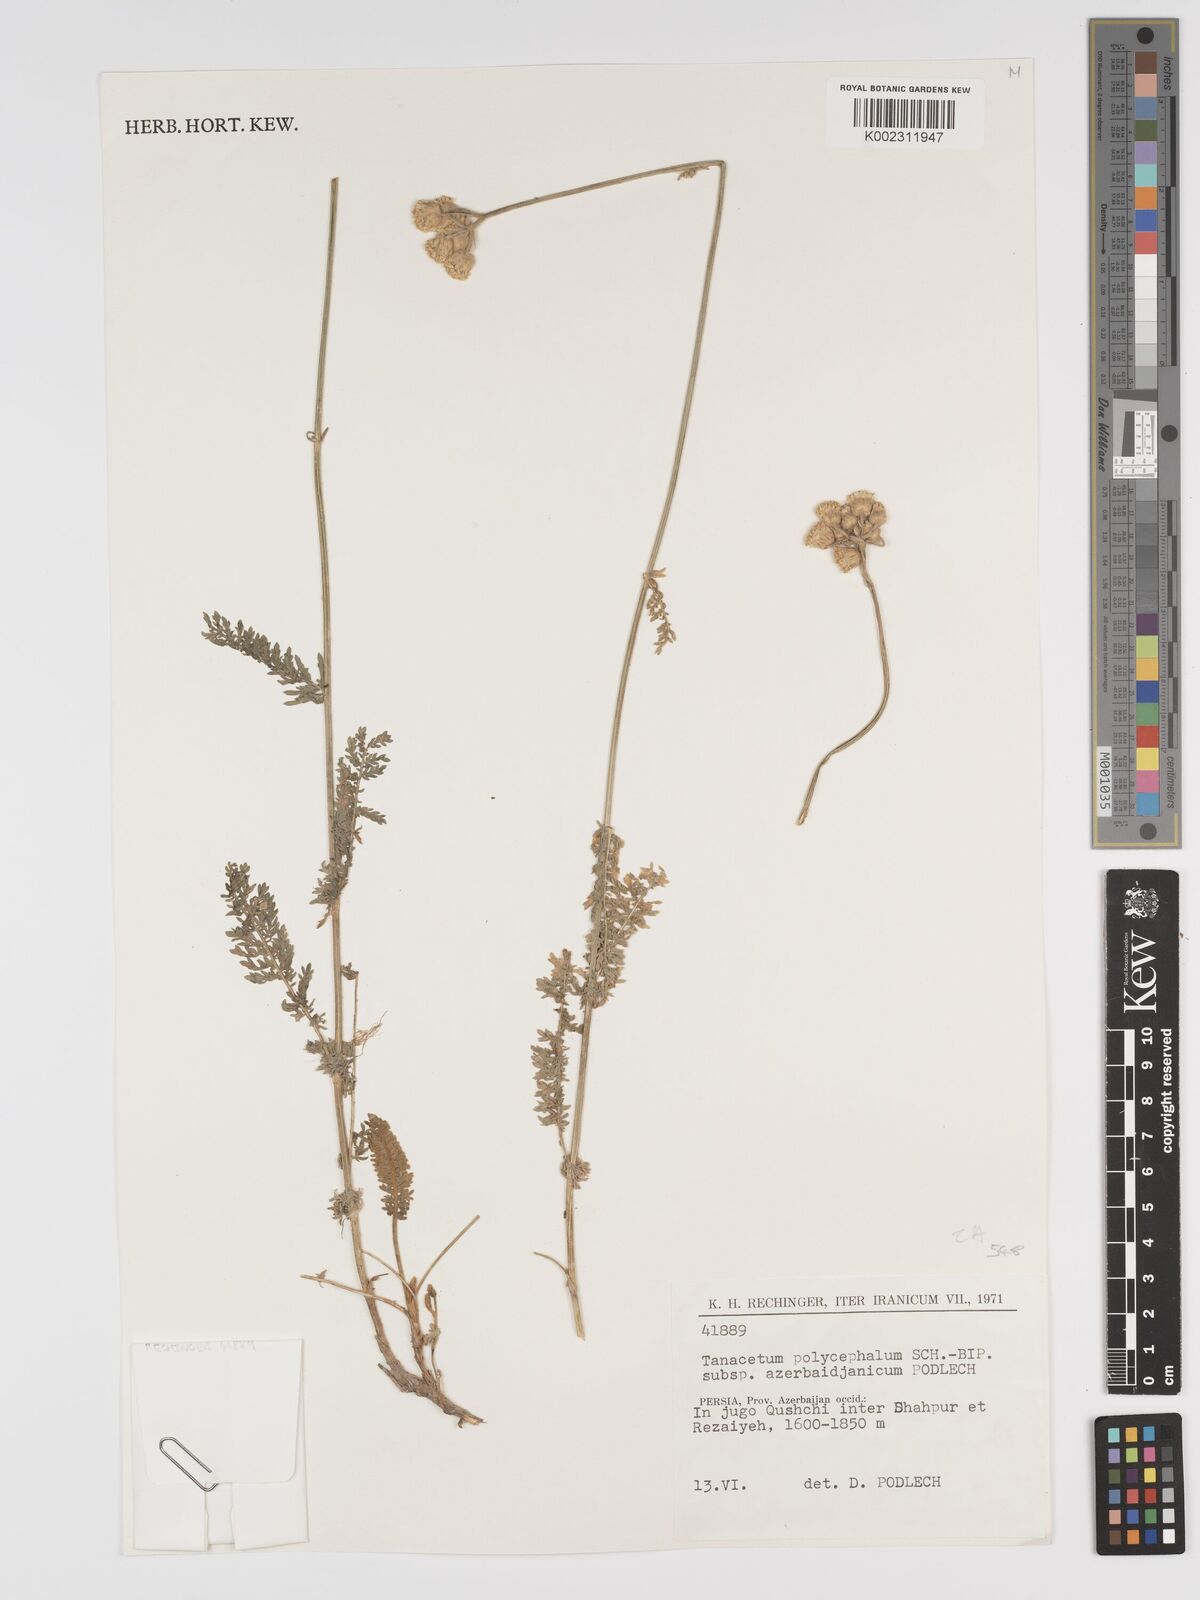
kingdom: Plantae
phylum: Tracheophyta
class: Magnoliopsida
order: Asterales
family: Asteraceae
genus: Tanacetum
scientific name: Tanacetum polycephalum
